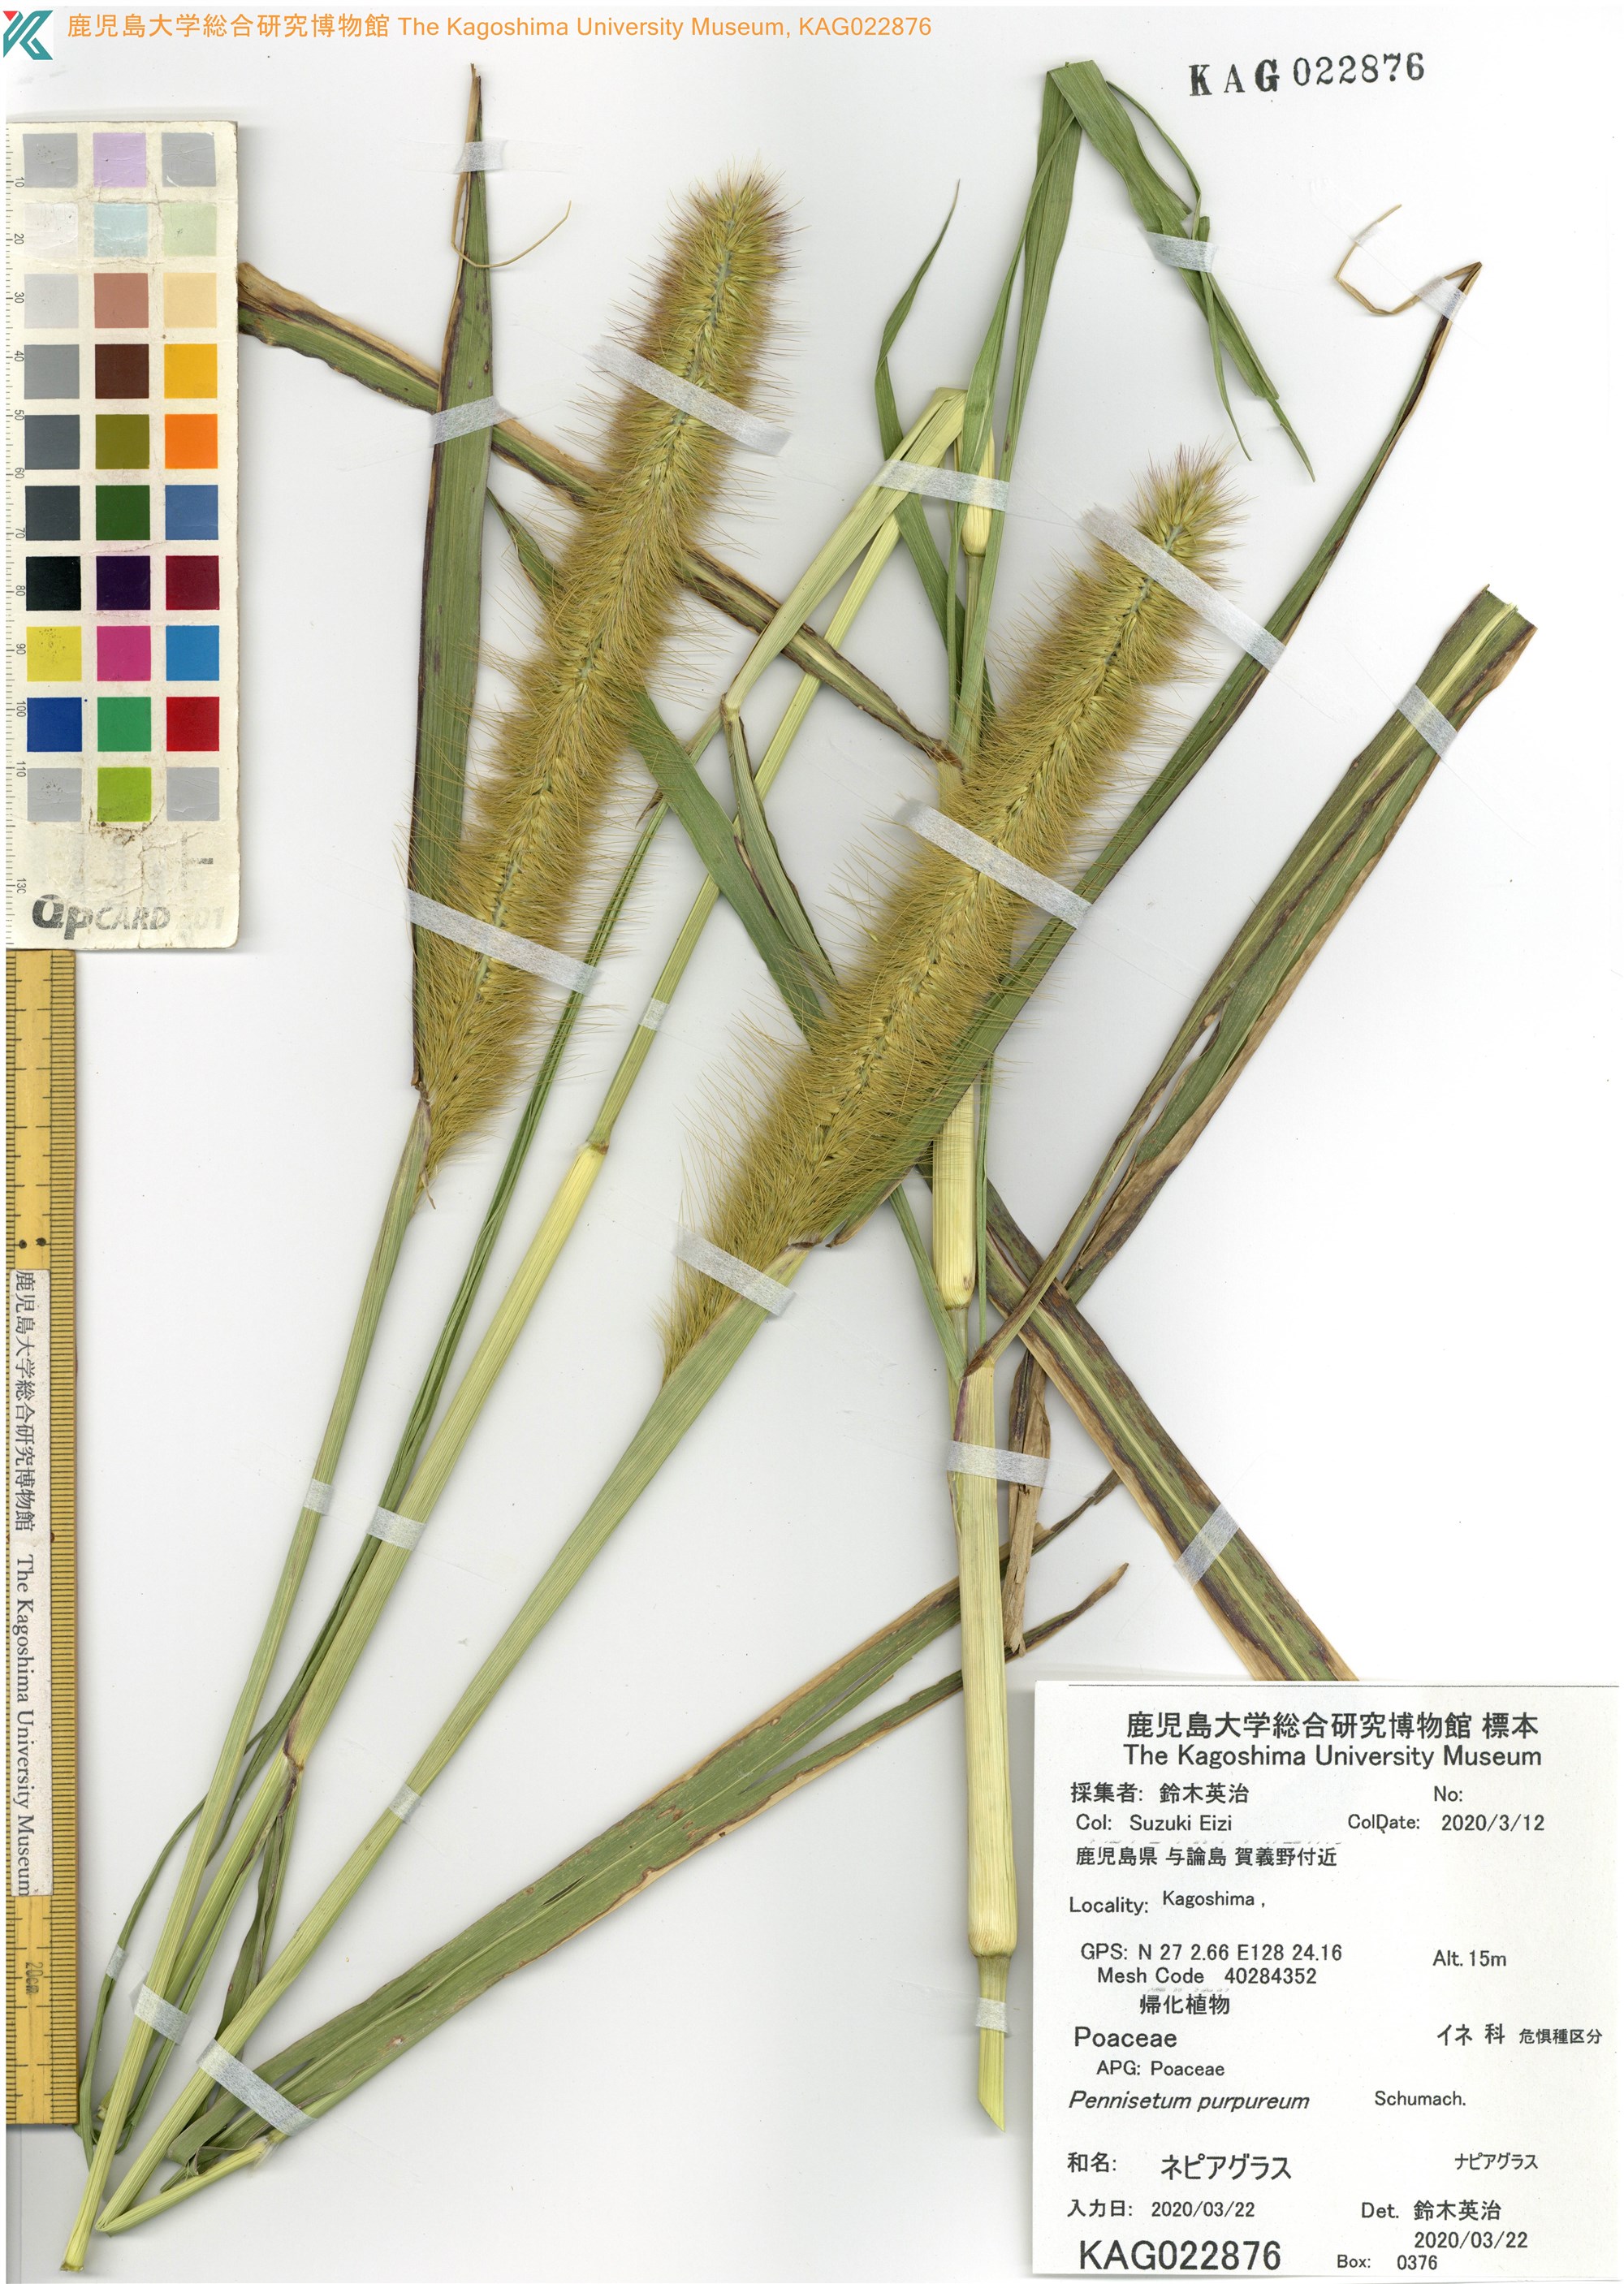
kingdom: Plantae
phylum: Tracheophyta
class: Liliopsida
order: Poales
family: Poaceae
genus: Cenchrus
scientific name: Cenchrus purpureus
